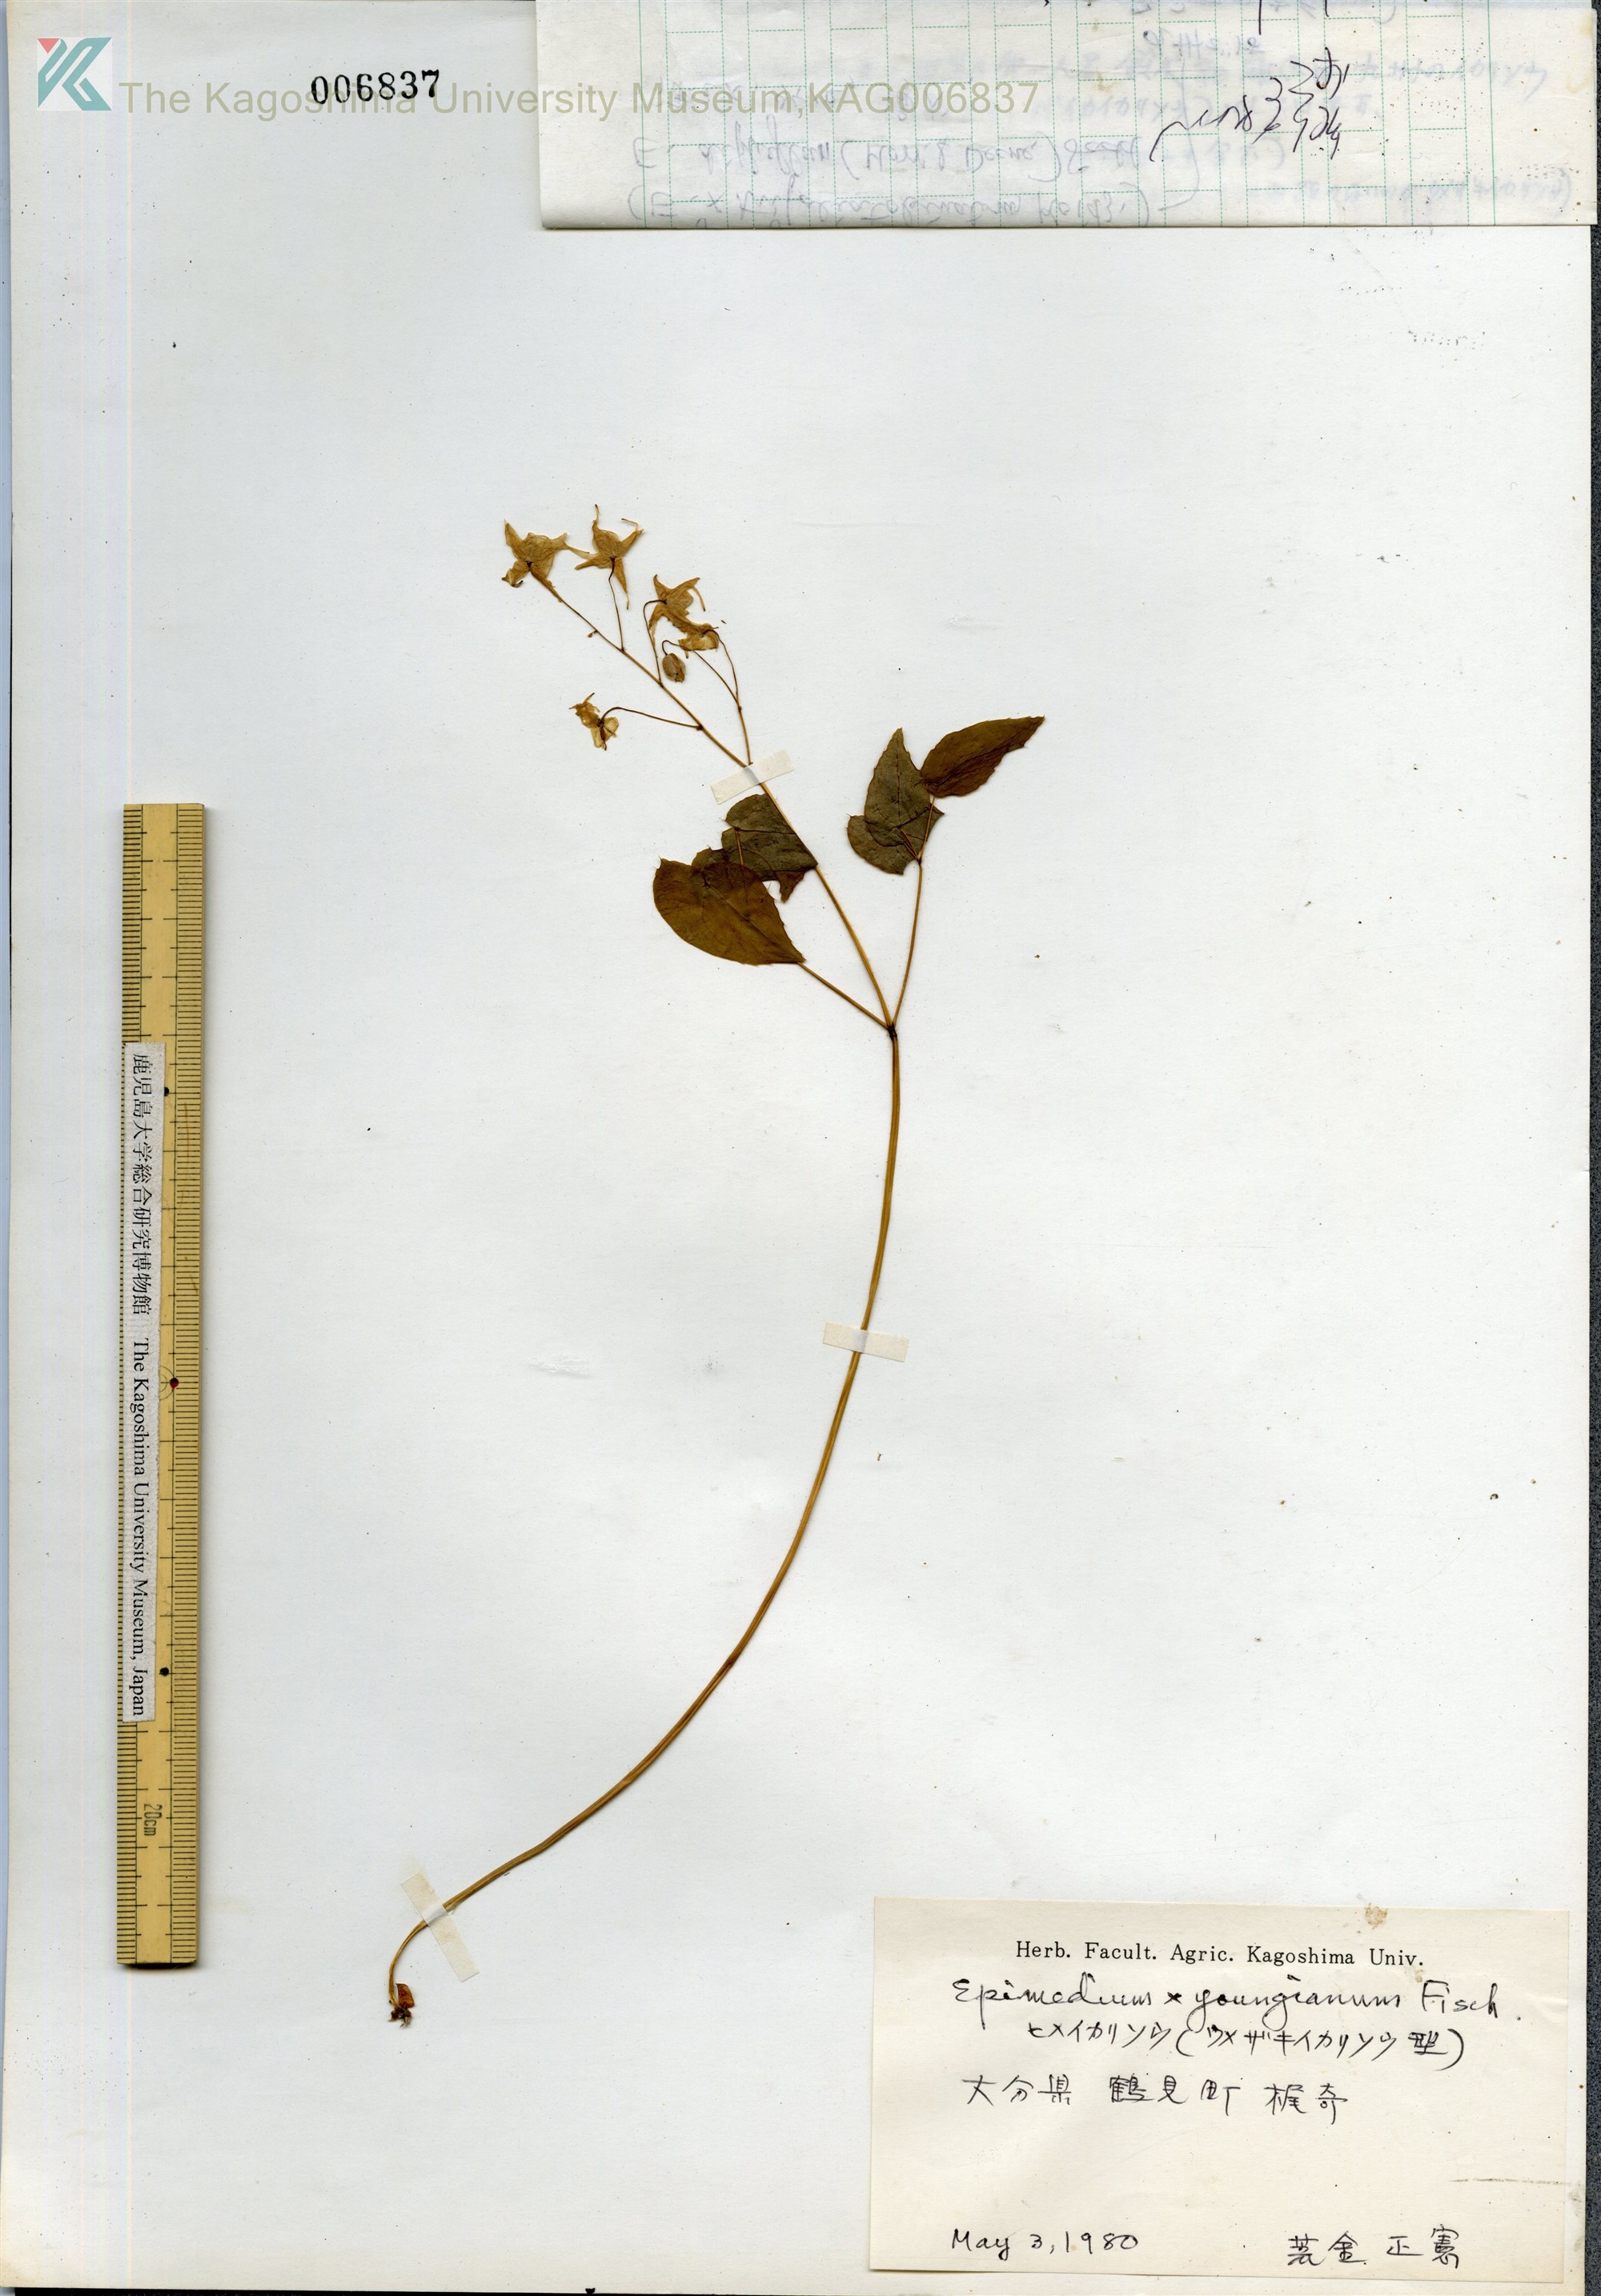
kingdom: Plantae
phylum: Tracheophyta
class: Magnoliopsida
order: Ranunculales
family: Berberidaceae
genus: Epimedium
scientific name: Epimedium youngianum
